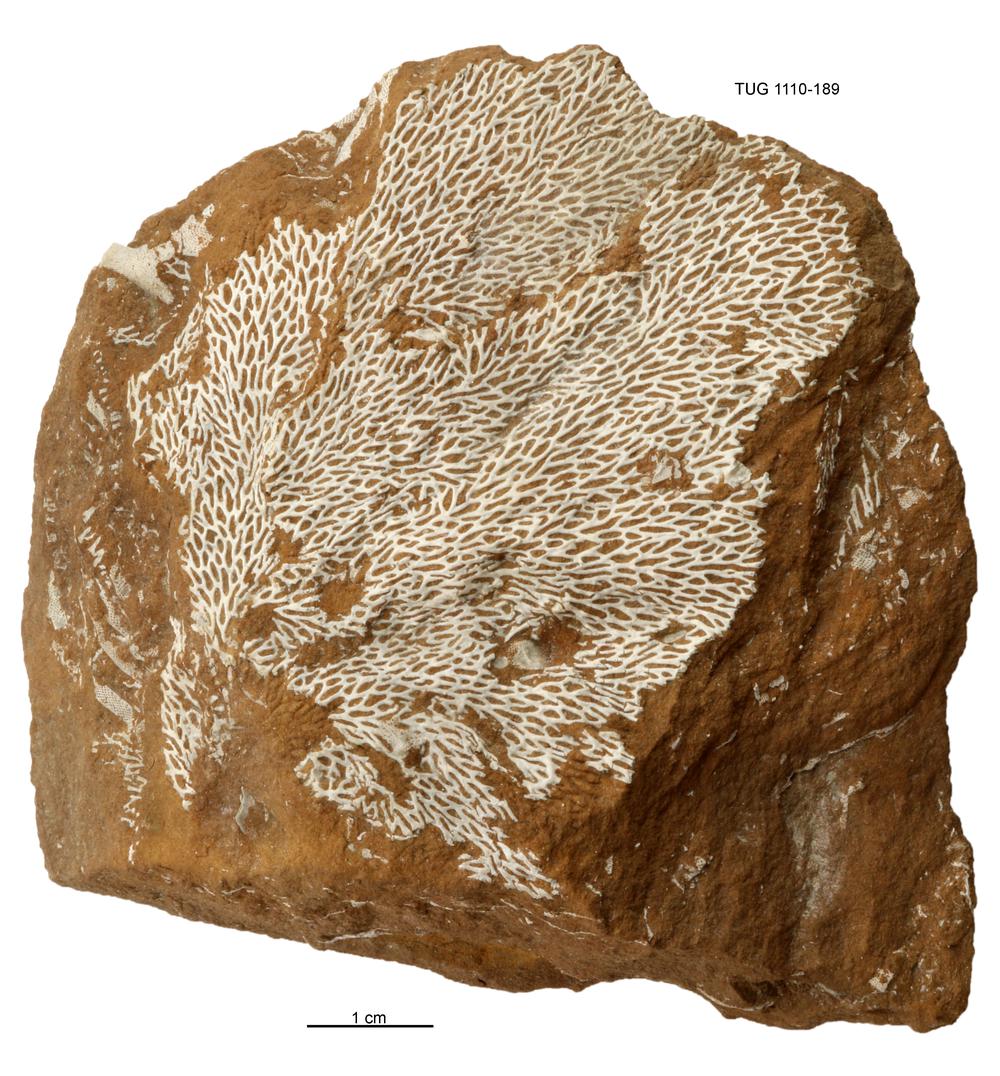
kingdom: Animalia
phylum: Bryozoa
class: Stenolaemata
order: Fenestrida
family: Phylloporinidae
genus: Phylloporina
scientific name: Phylloporina
